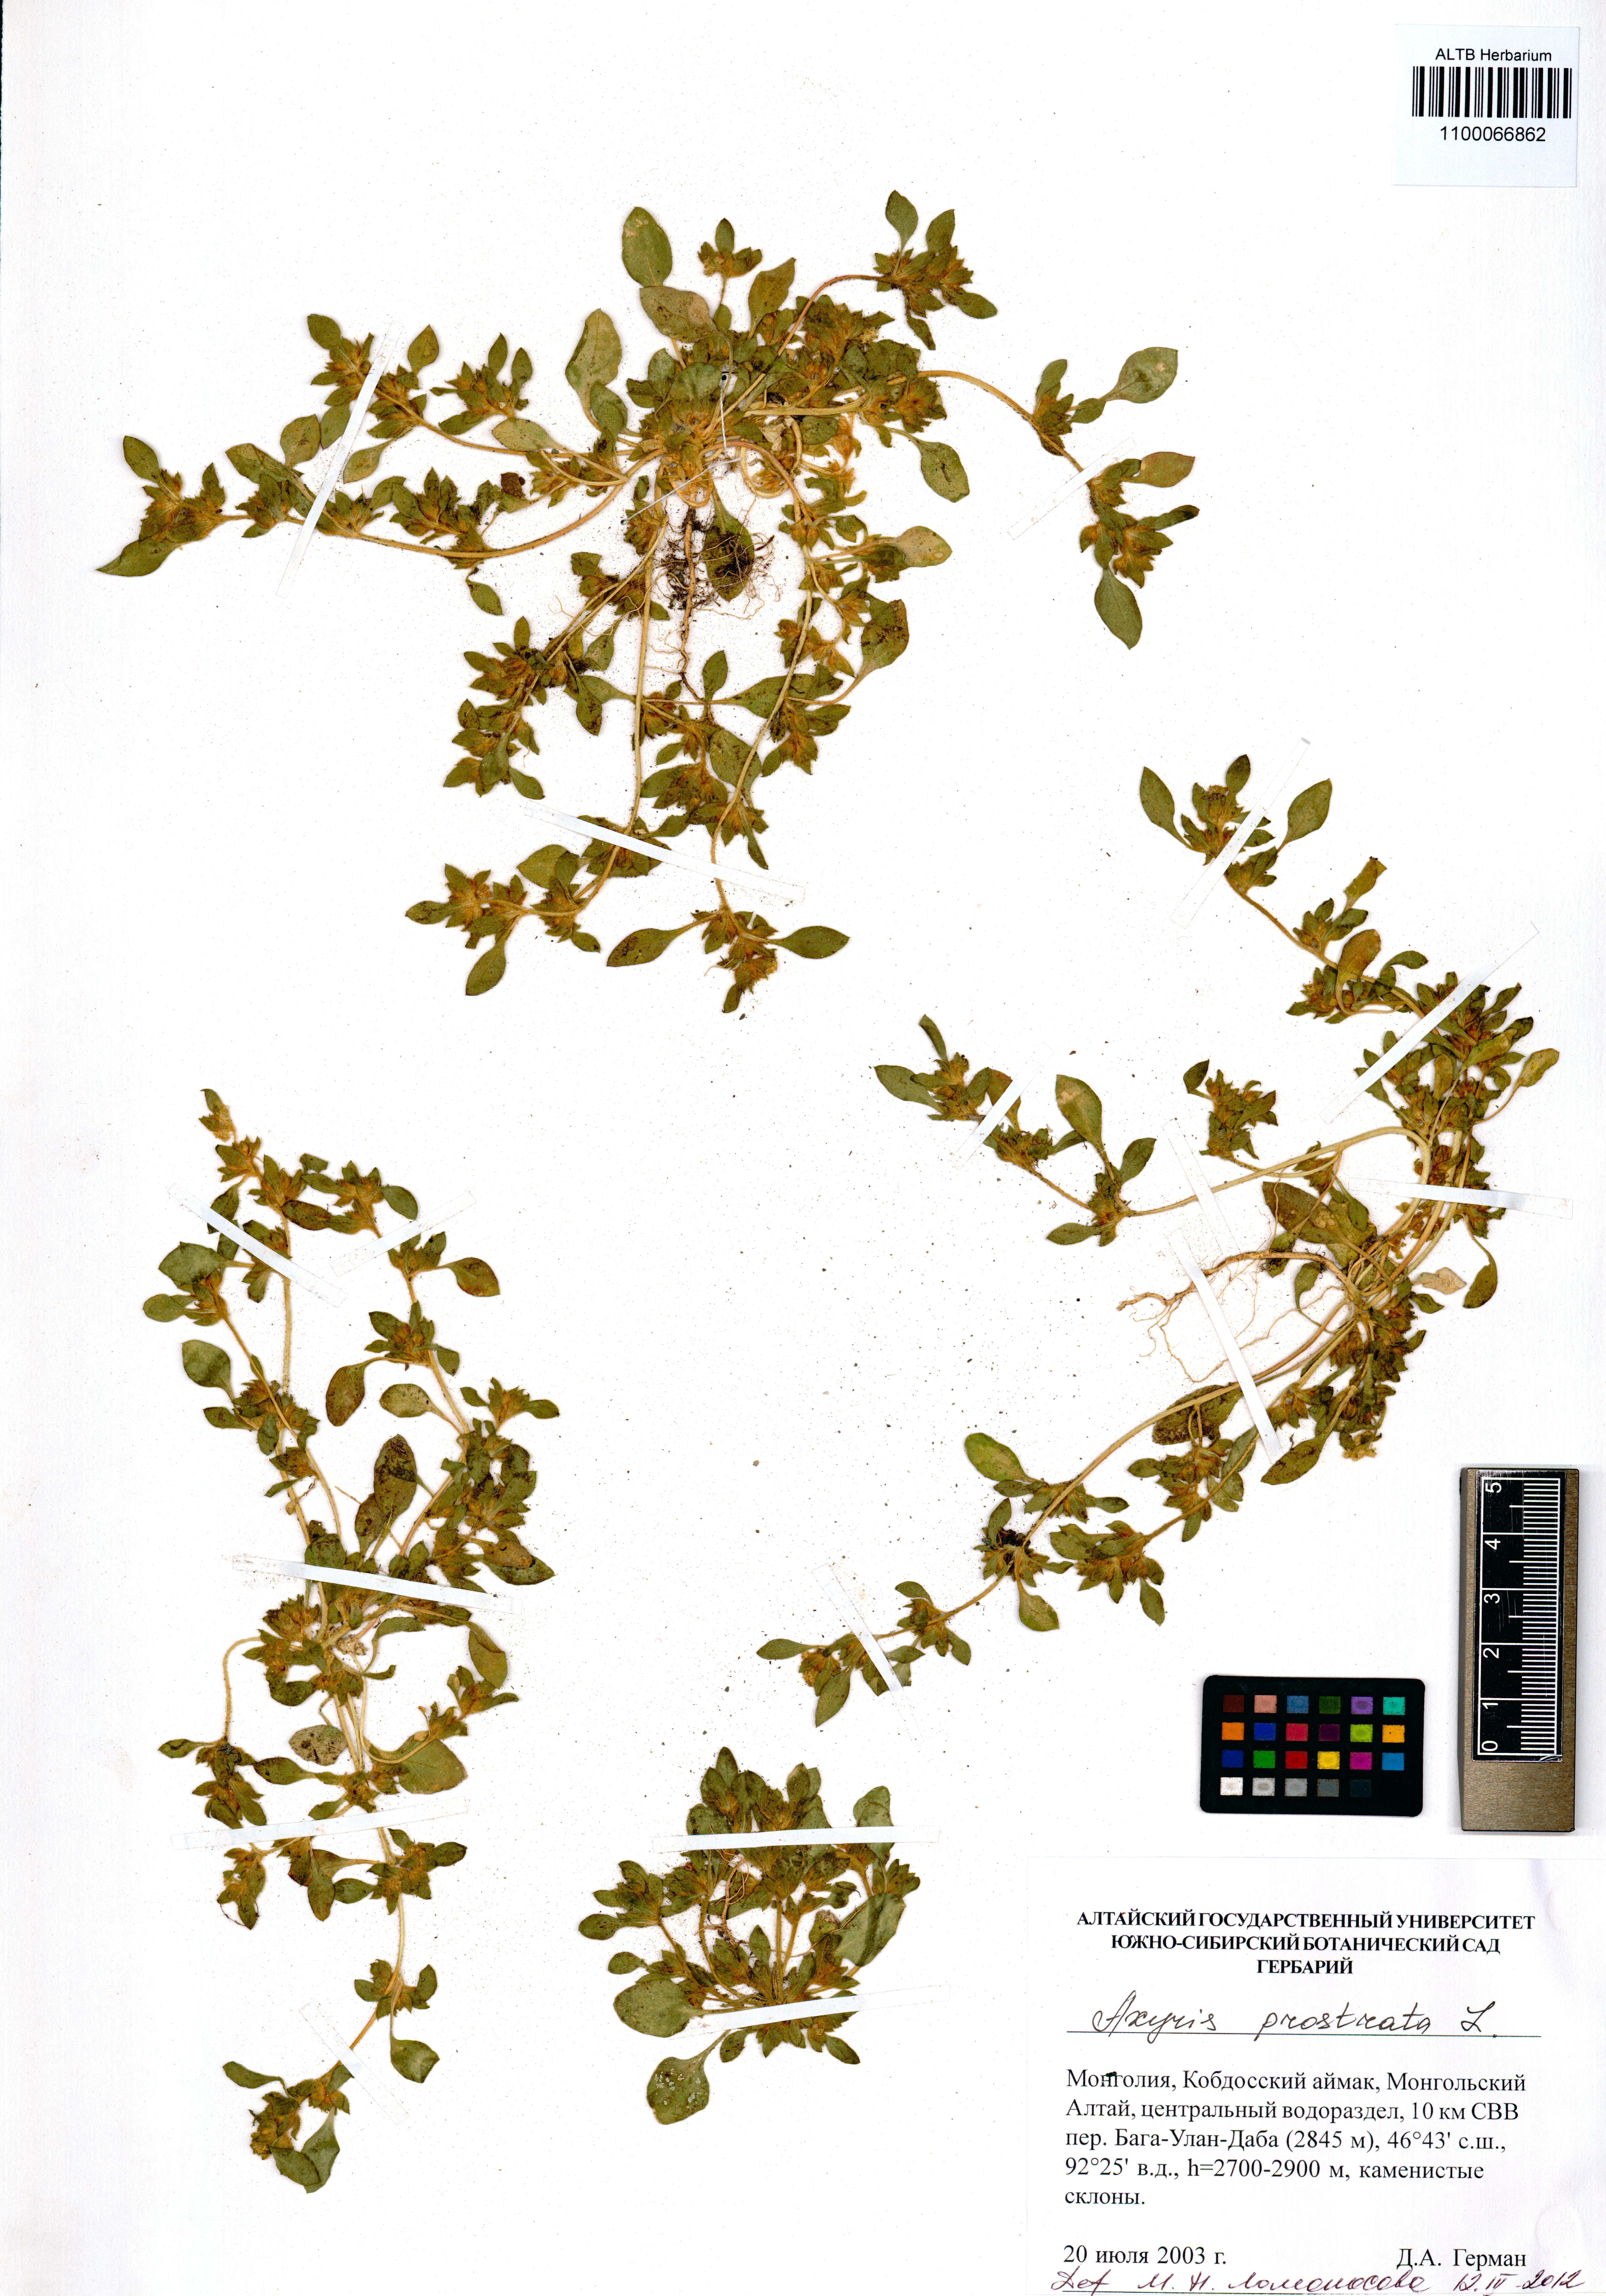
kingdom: Plantae
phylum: Tracheophyta
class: Magnoliopsida
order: Caryophyllales
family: Amaranthaceae
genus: Axyris
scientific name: Axyris prostrata
